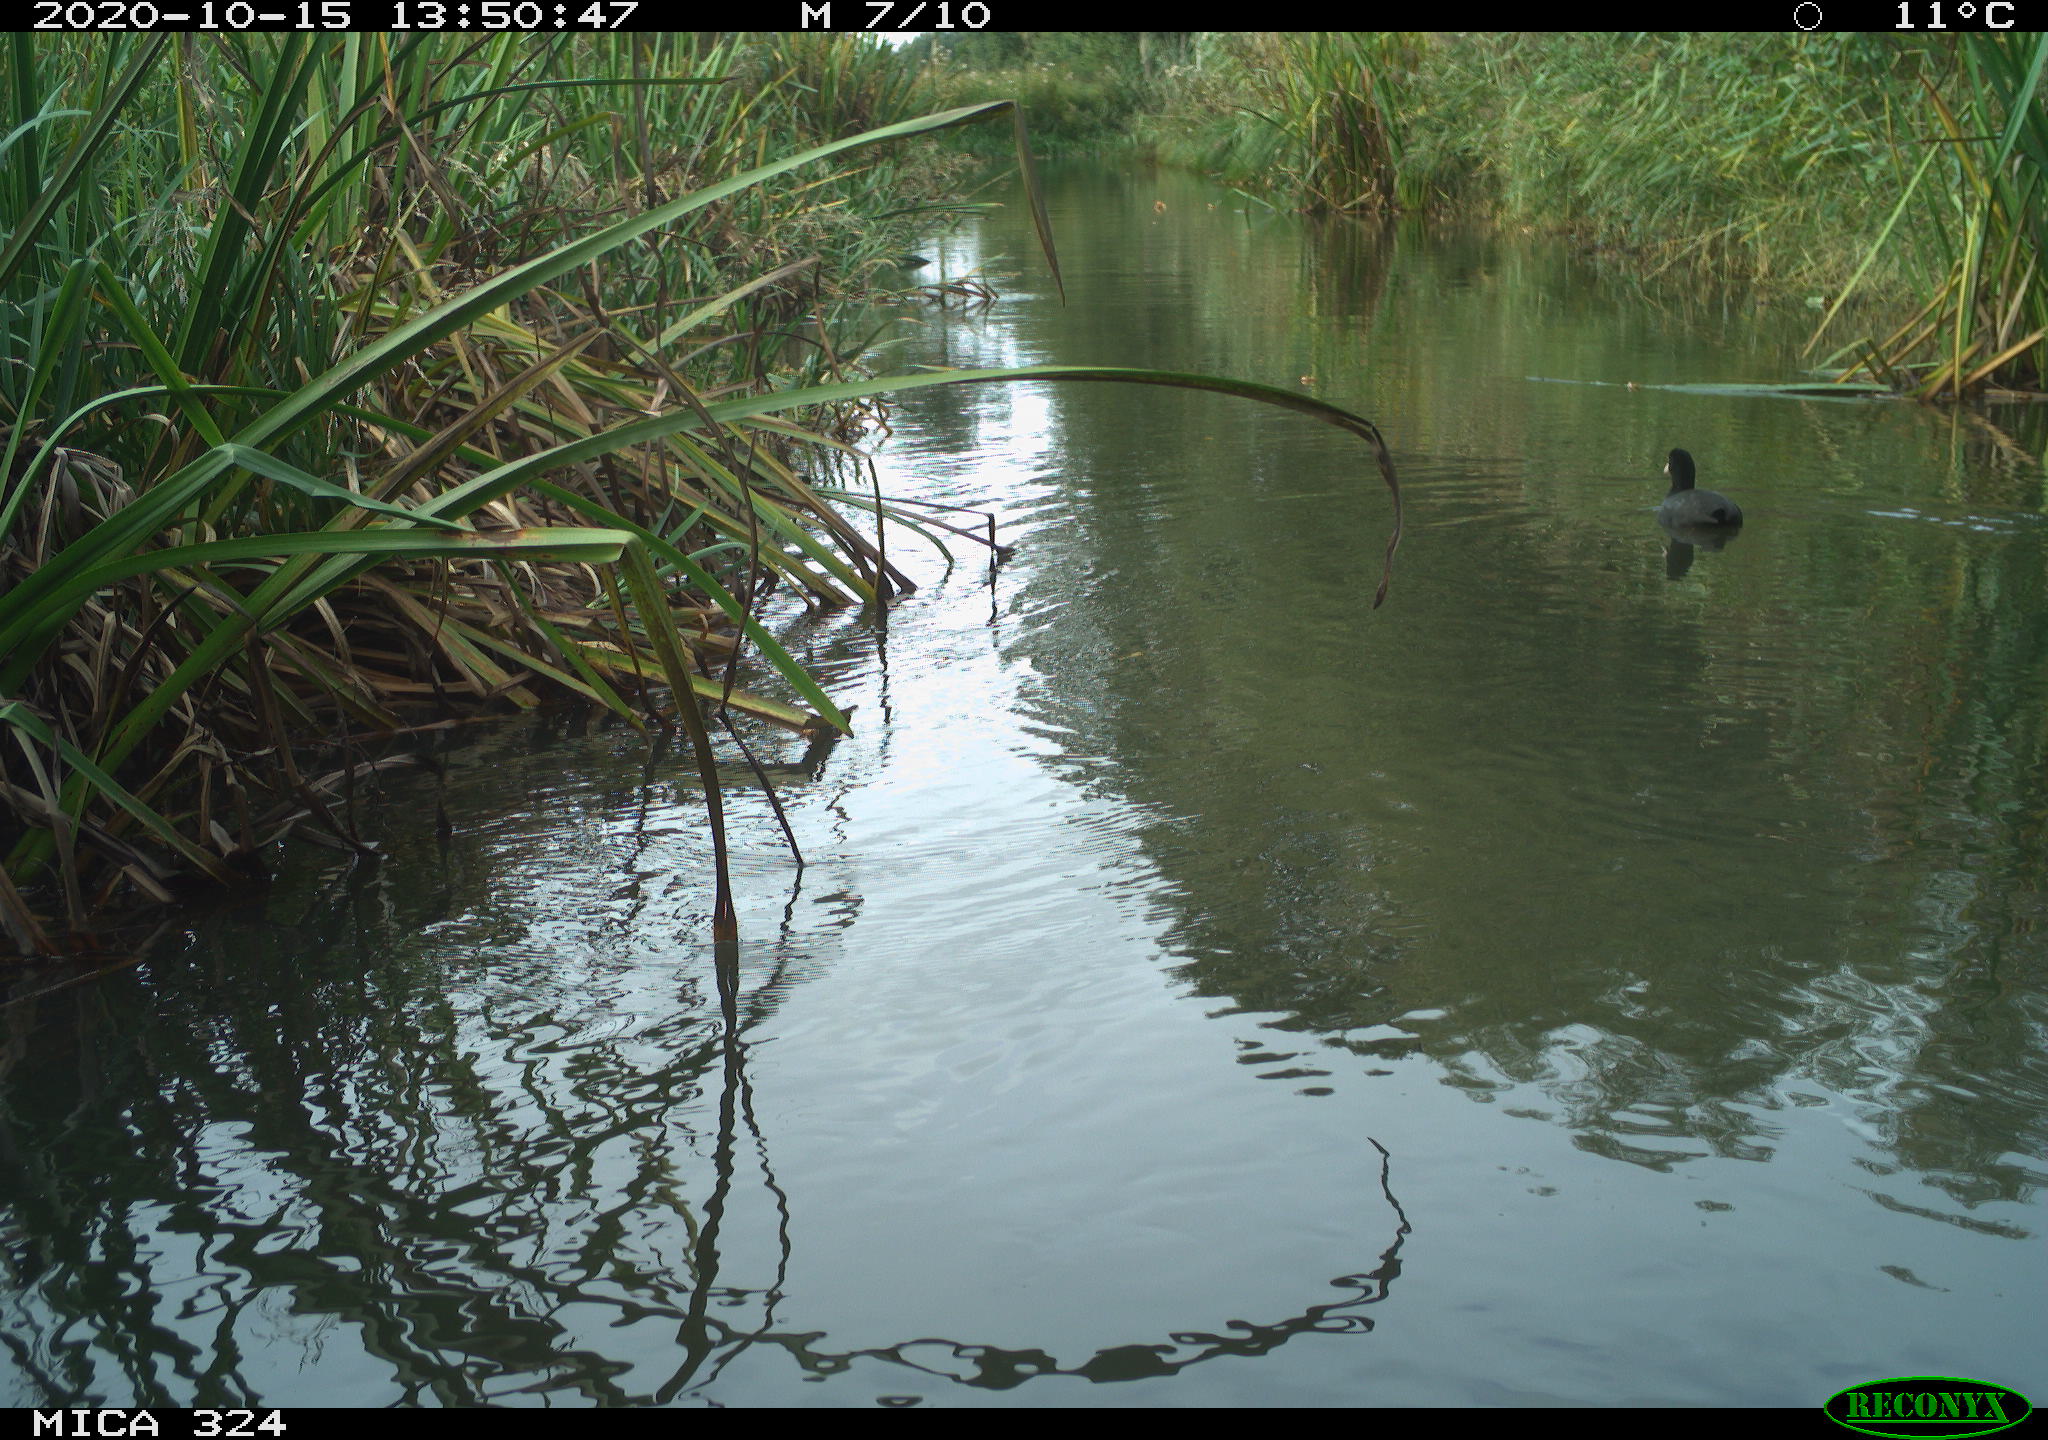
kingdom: Animalia
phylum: Chordata
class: Aves
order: Gruiformes
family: Rallidae
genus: Fulica
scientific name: Fulica atra
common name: Eurasian coot
